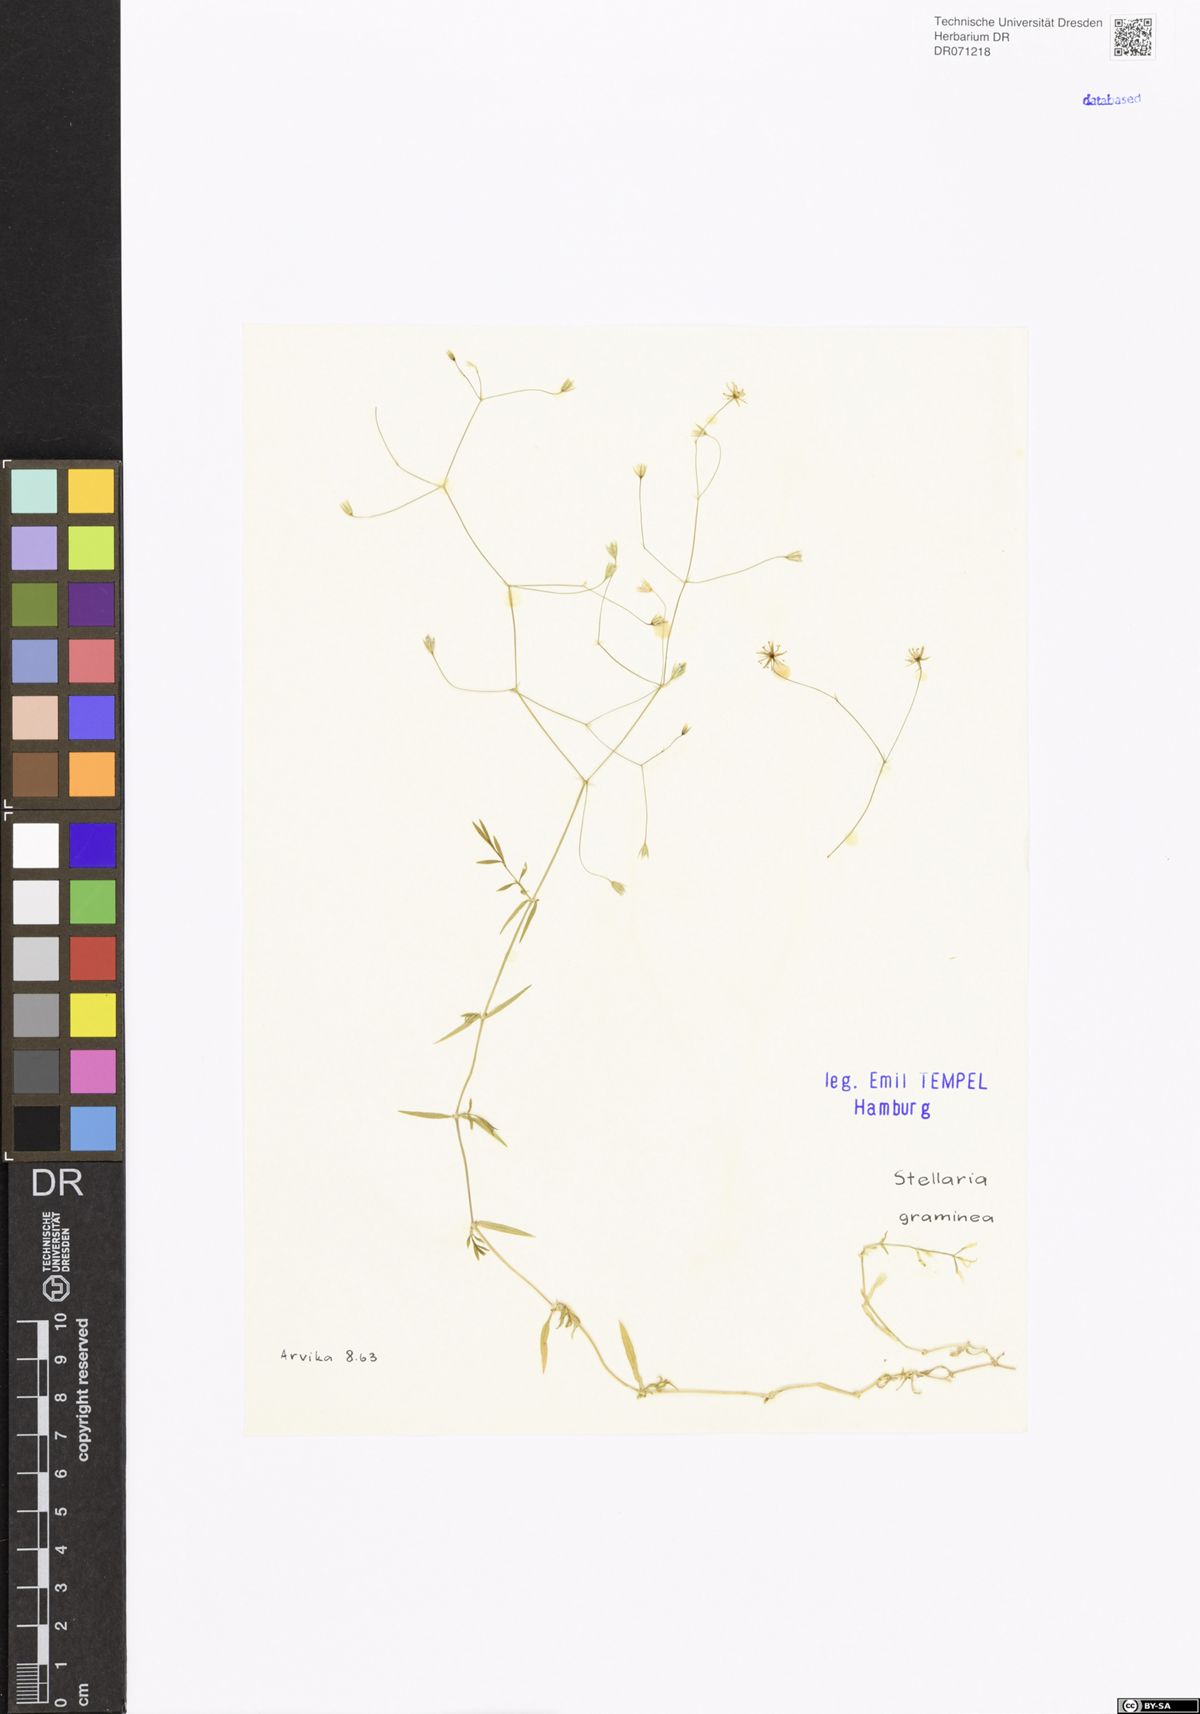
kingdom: Plantae
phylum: Tracheophyta
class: Magnoliopsida
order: Caryophyllales
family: Caryophyllaceae
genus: Stellaria
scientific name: Stellaria graminea
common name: Grass-like starwort
